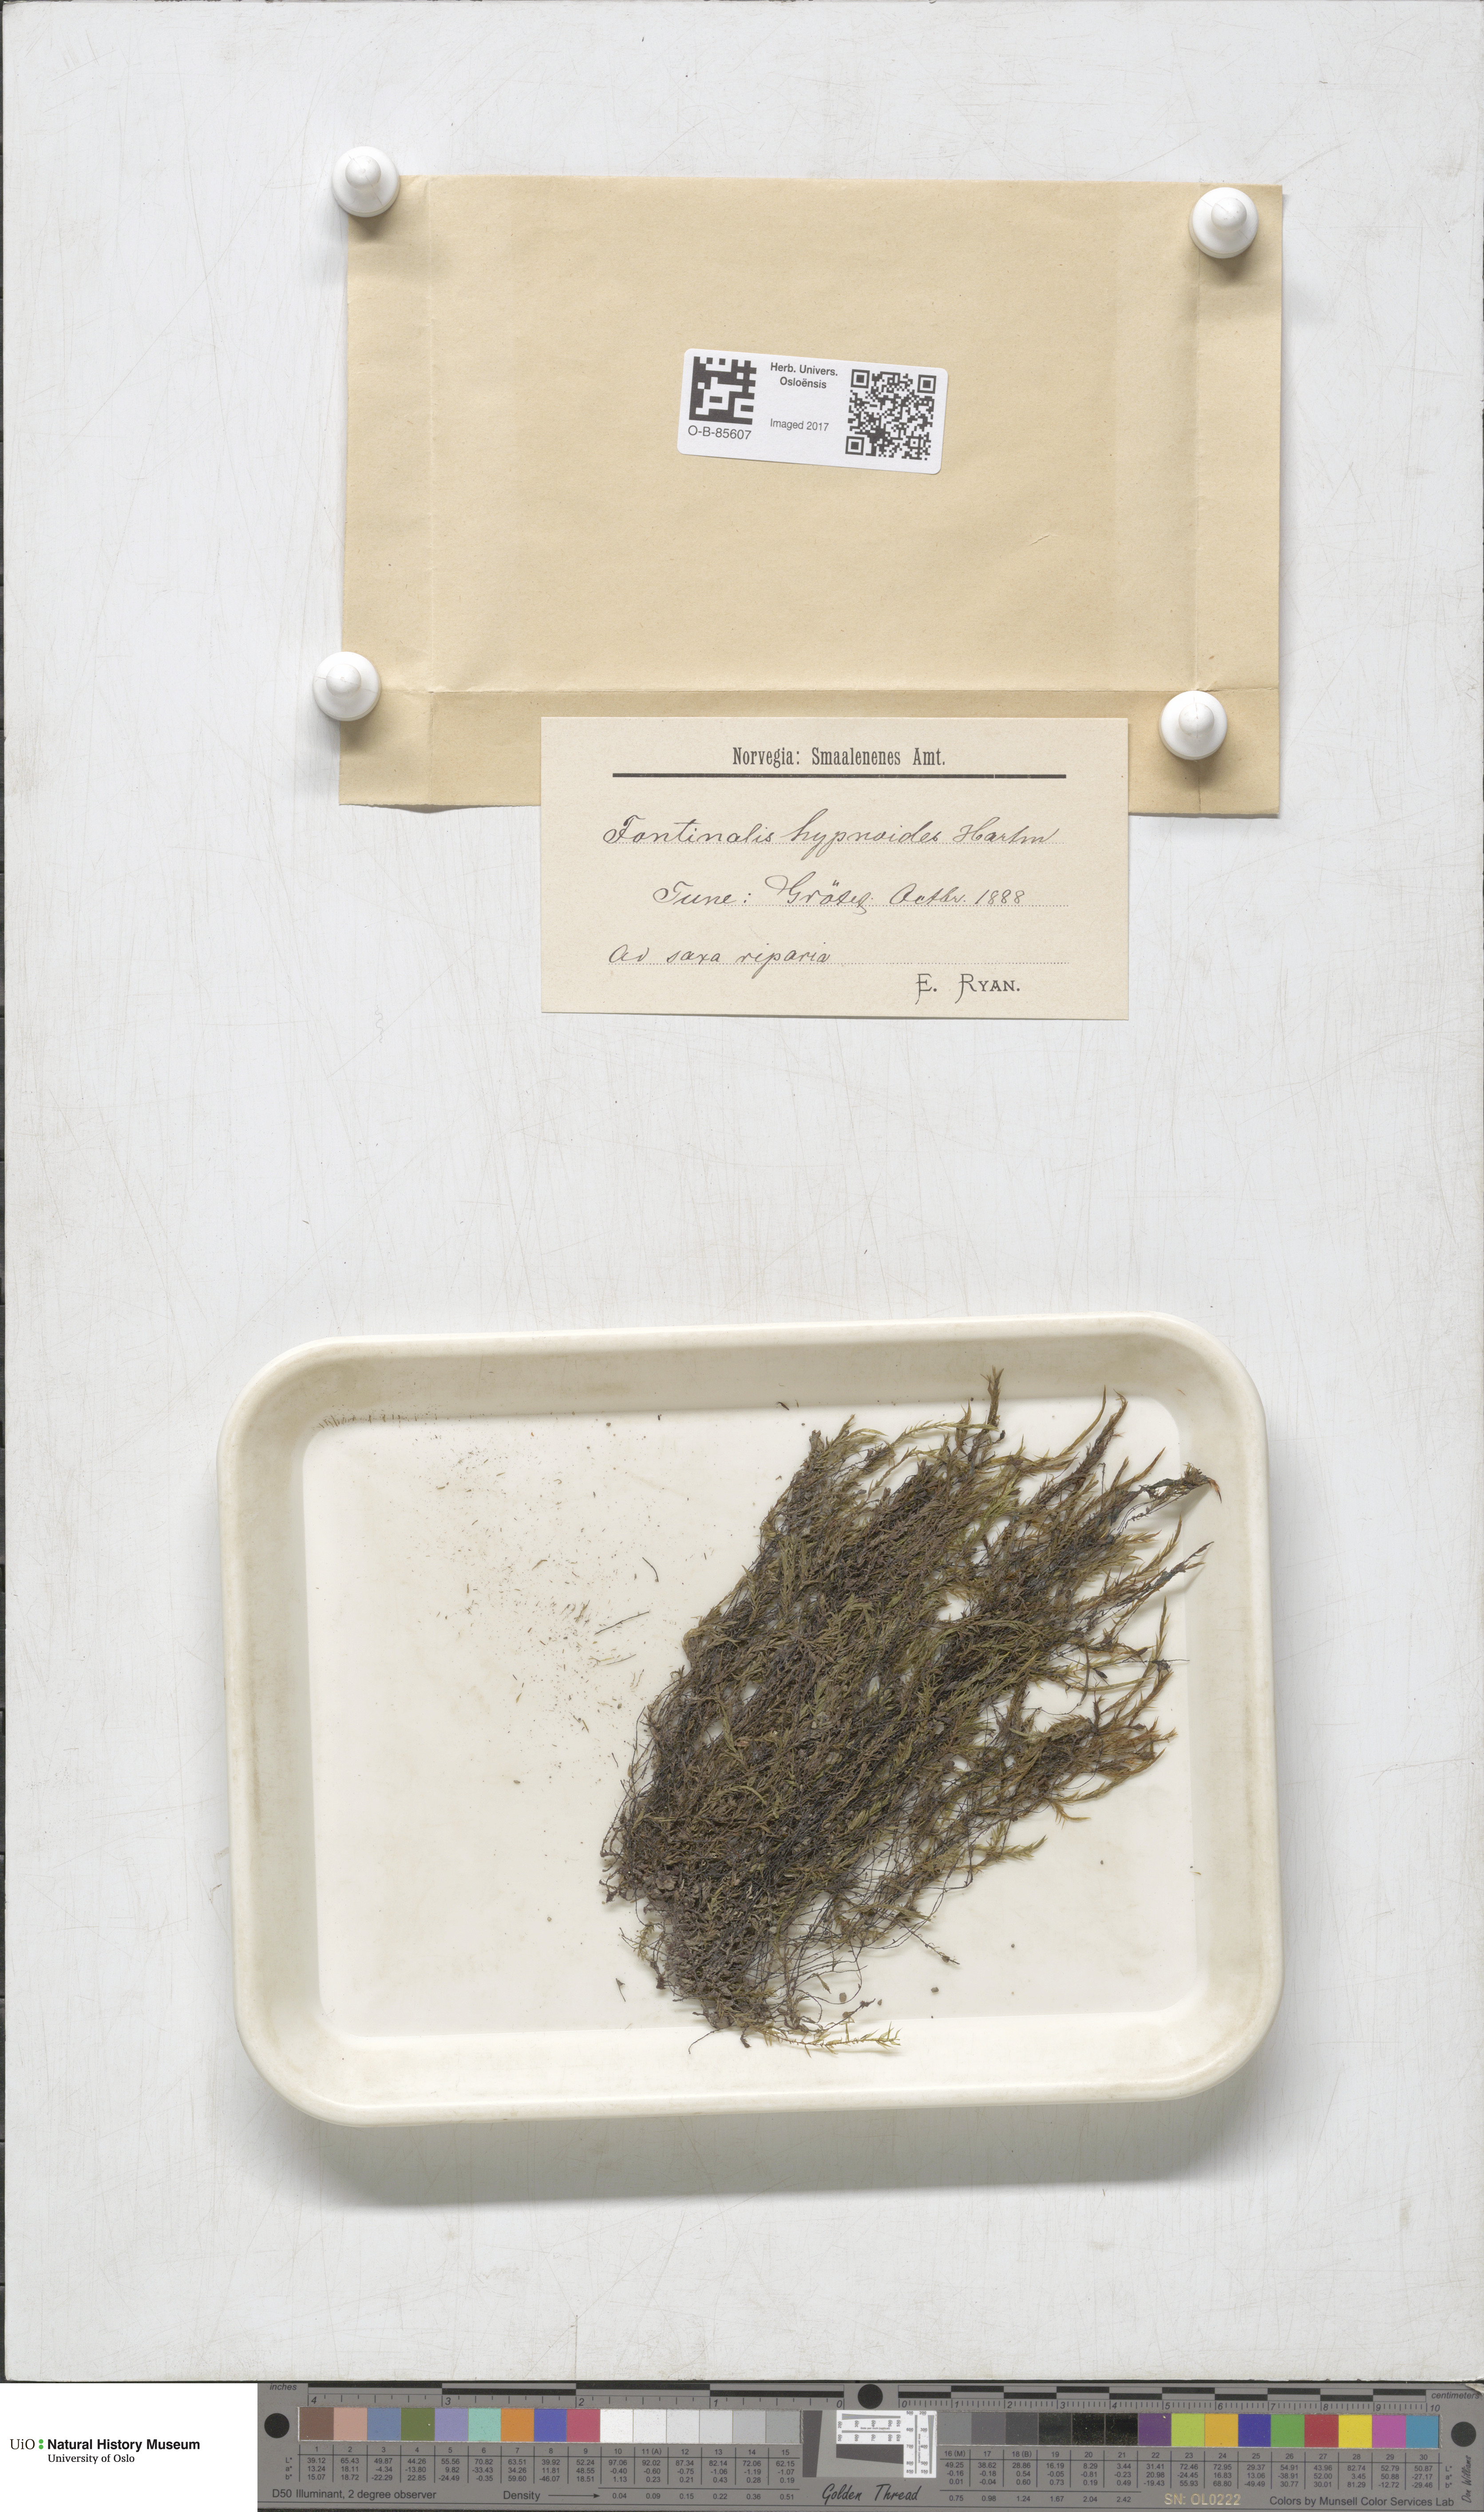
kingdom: Plantae
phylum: Bryophyta
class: Bryopsida
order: Hypnales
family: Fontinalaceae
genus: Fontinalis
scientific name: Fontinalis hypnoides
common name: River moss
